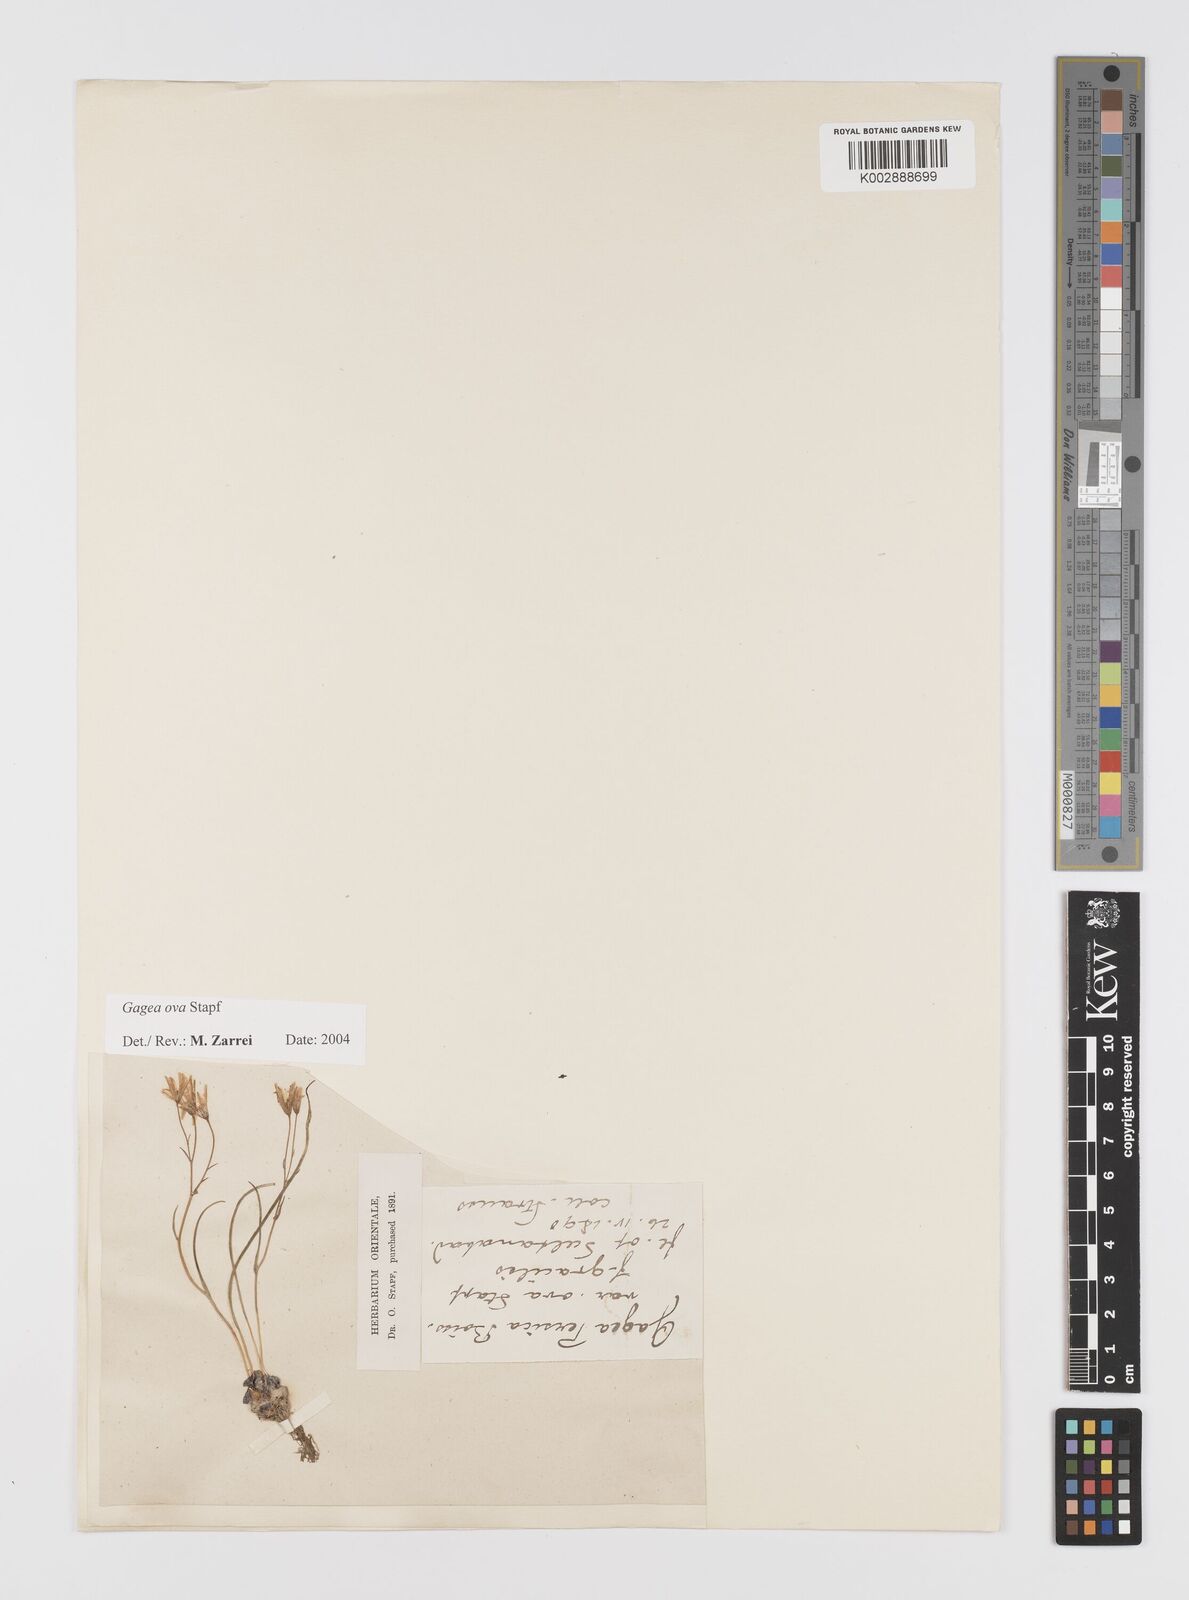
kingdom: Plantae
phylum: Tracheophyta
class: Liliopsida
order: Liliales
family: Liliaceae
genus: Gagea
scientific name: Gagea kunawurensis
